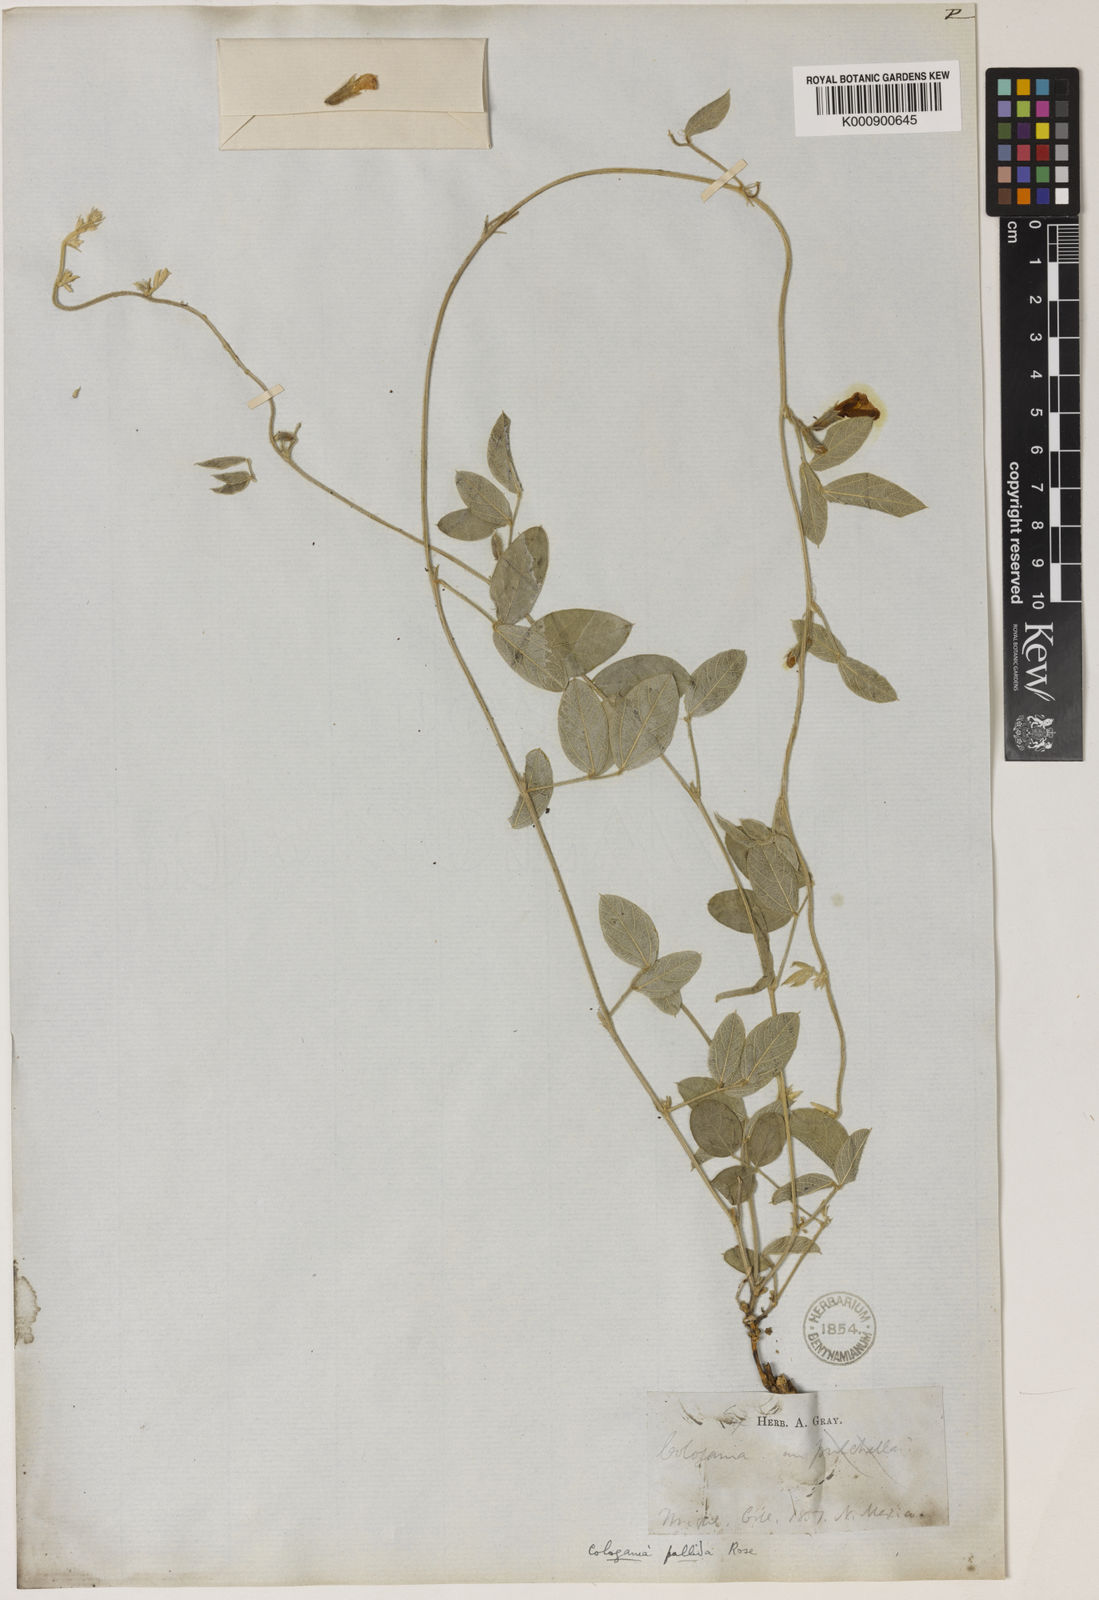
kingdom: Plantae
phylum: Tracheophyta
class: Magnoliopsida
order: Fabales
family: Fabaceae
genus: Cologania
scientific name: Cologania pallida
